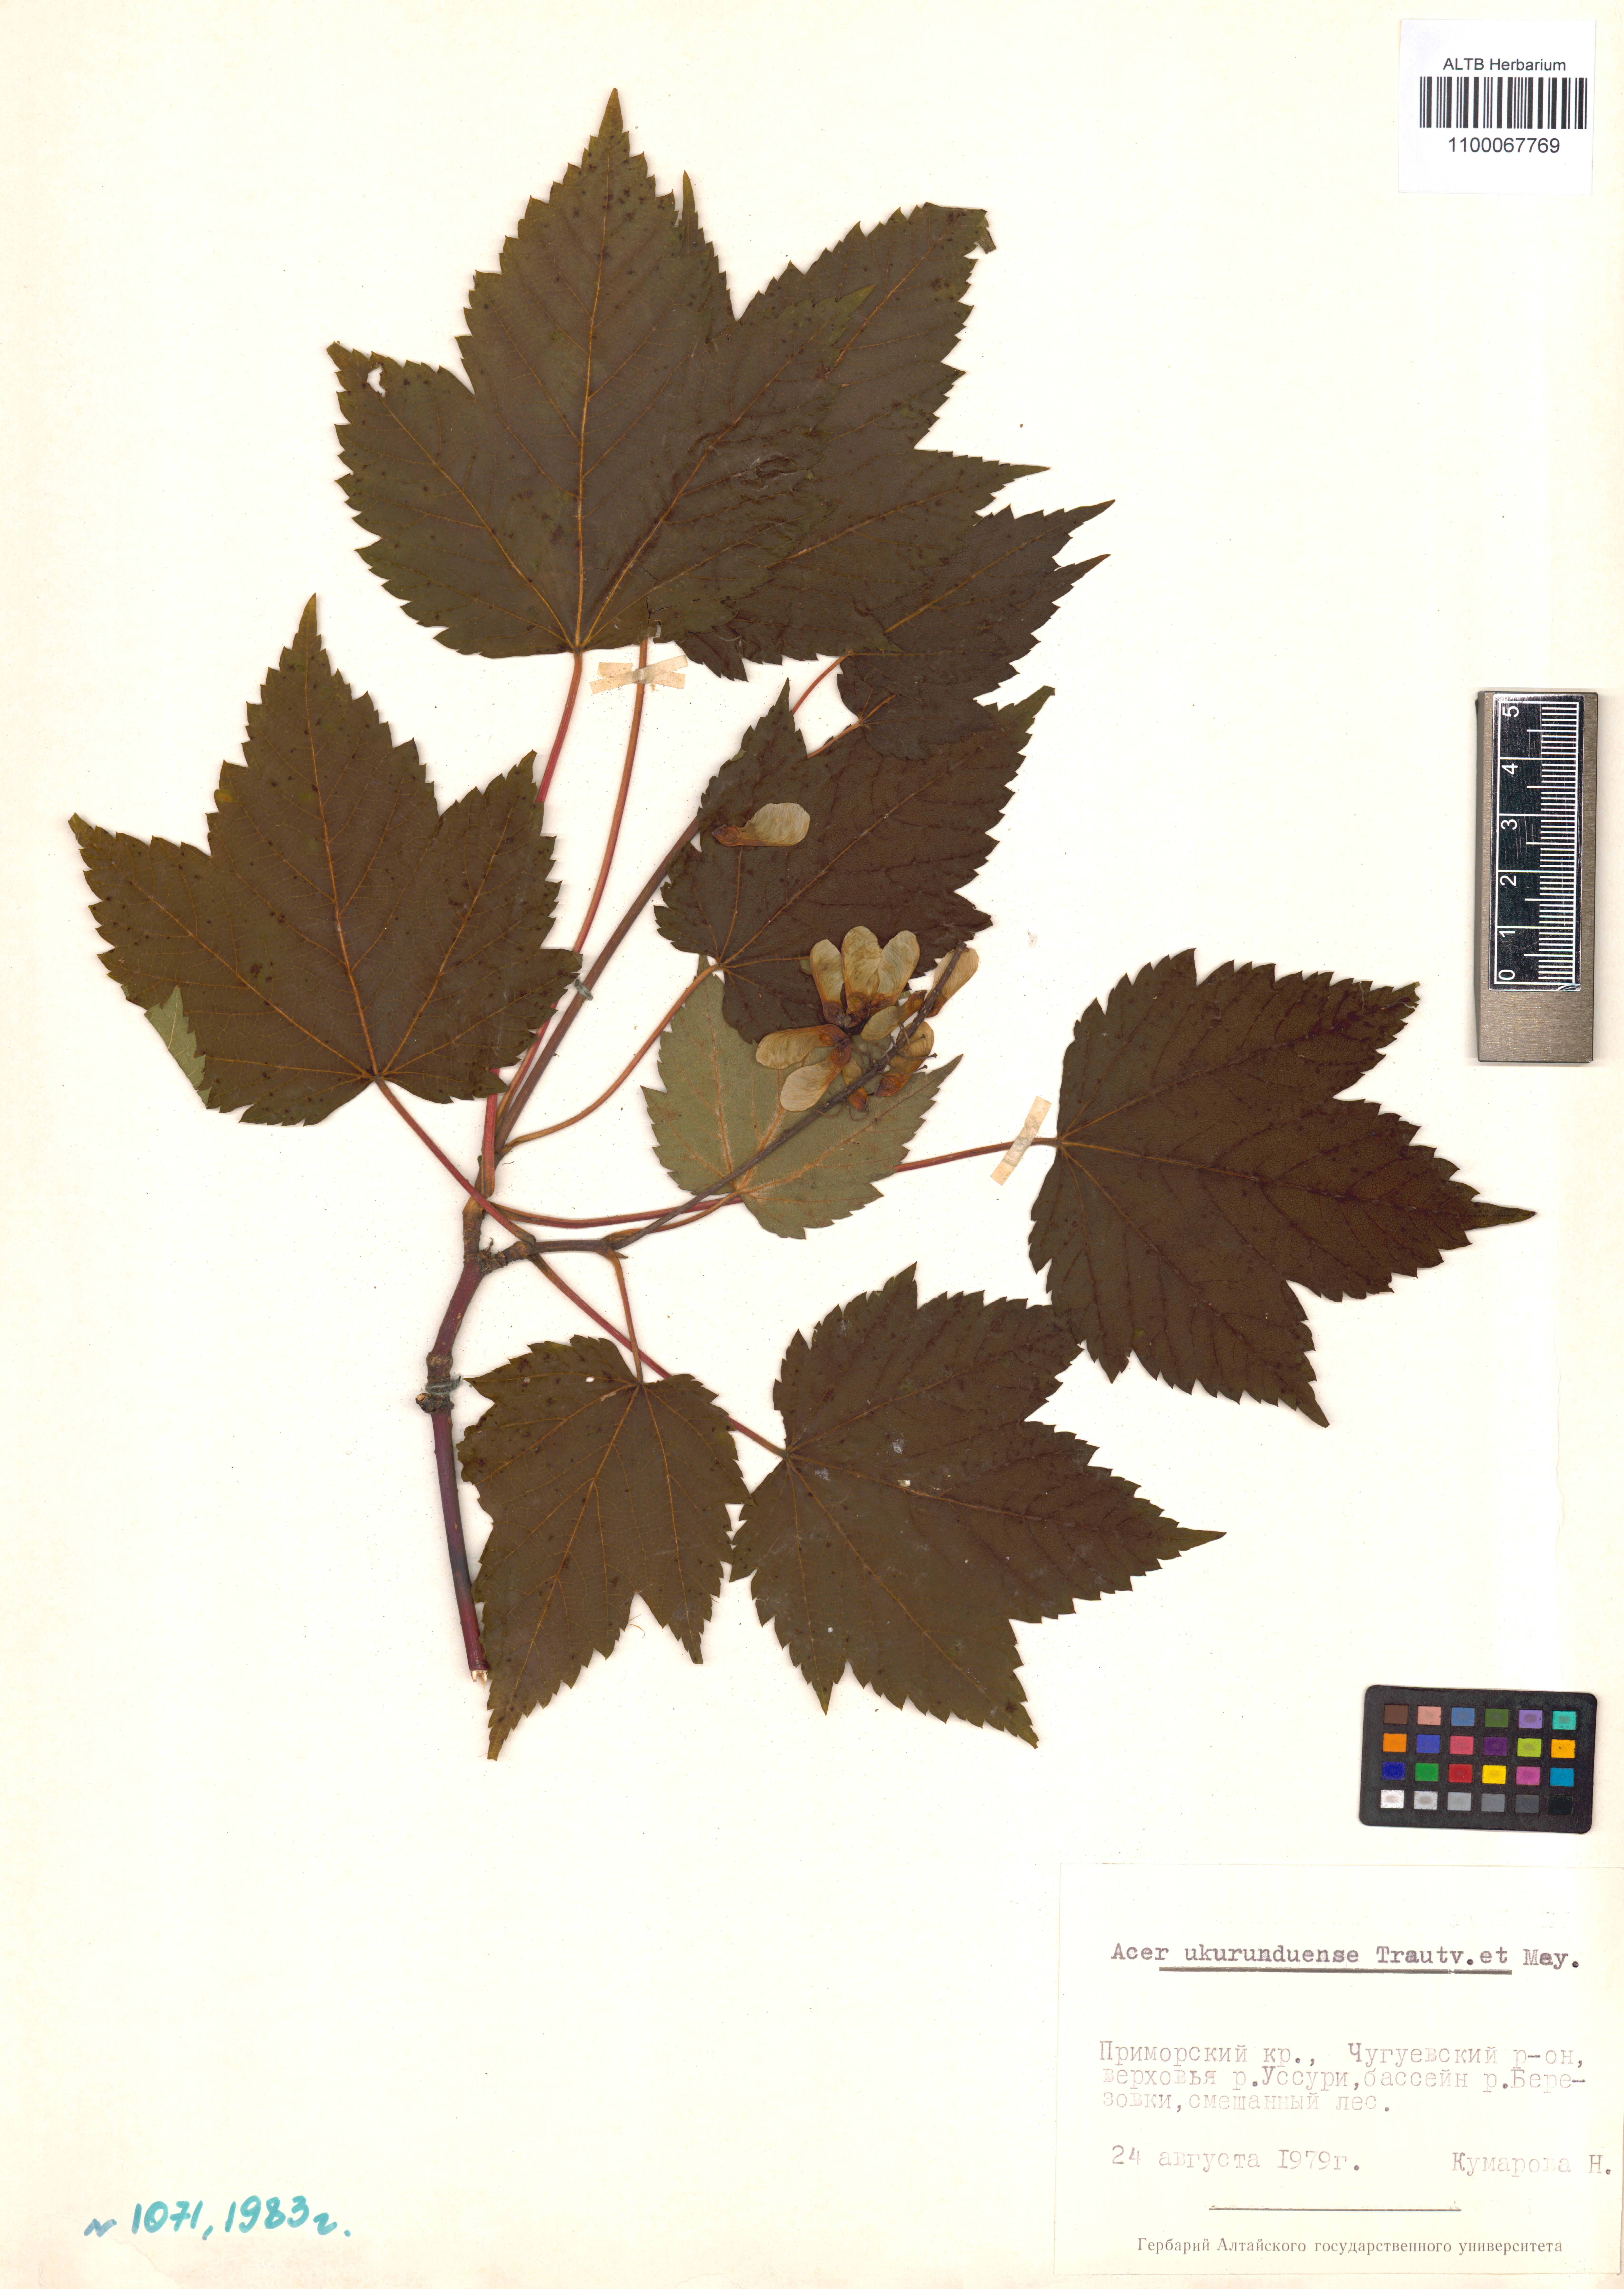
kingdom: Plantae
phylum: Tracheophyta
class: Magnoliopsida
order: Sapindales
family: Sapindaceae
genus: Acer
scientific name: Acer ukurunduense
